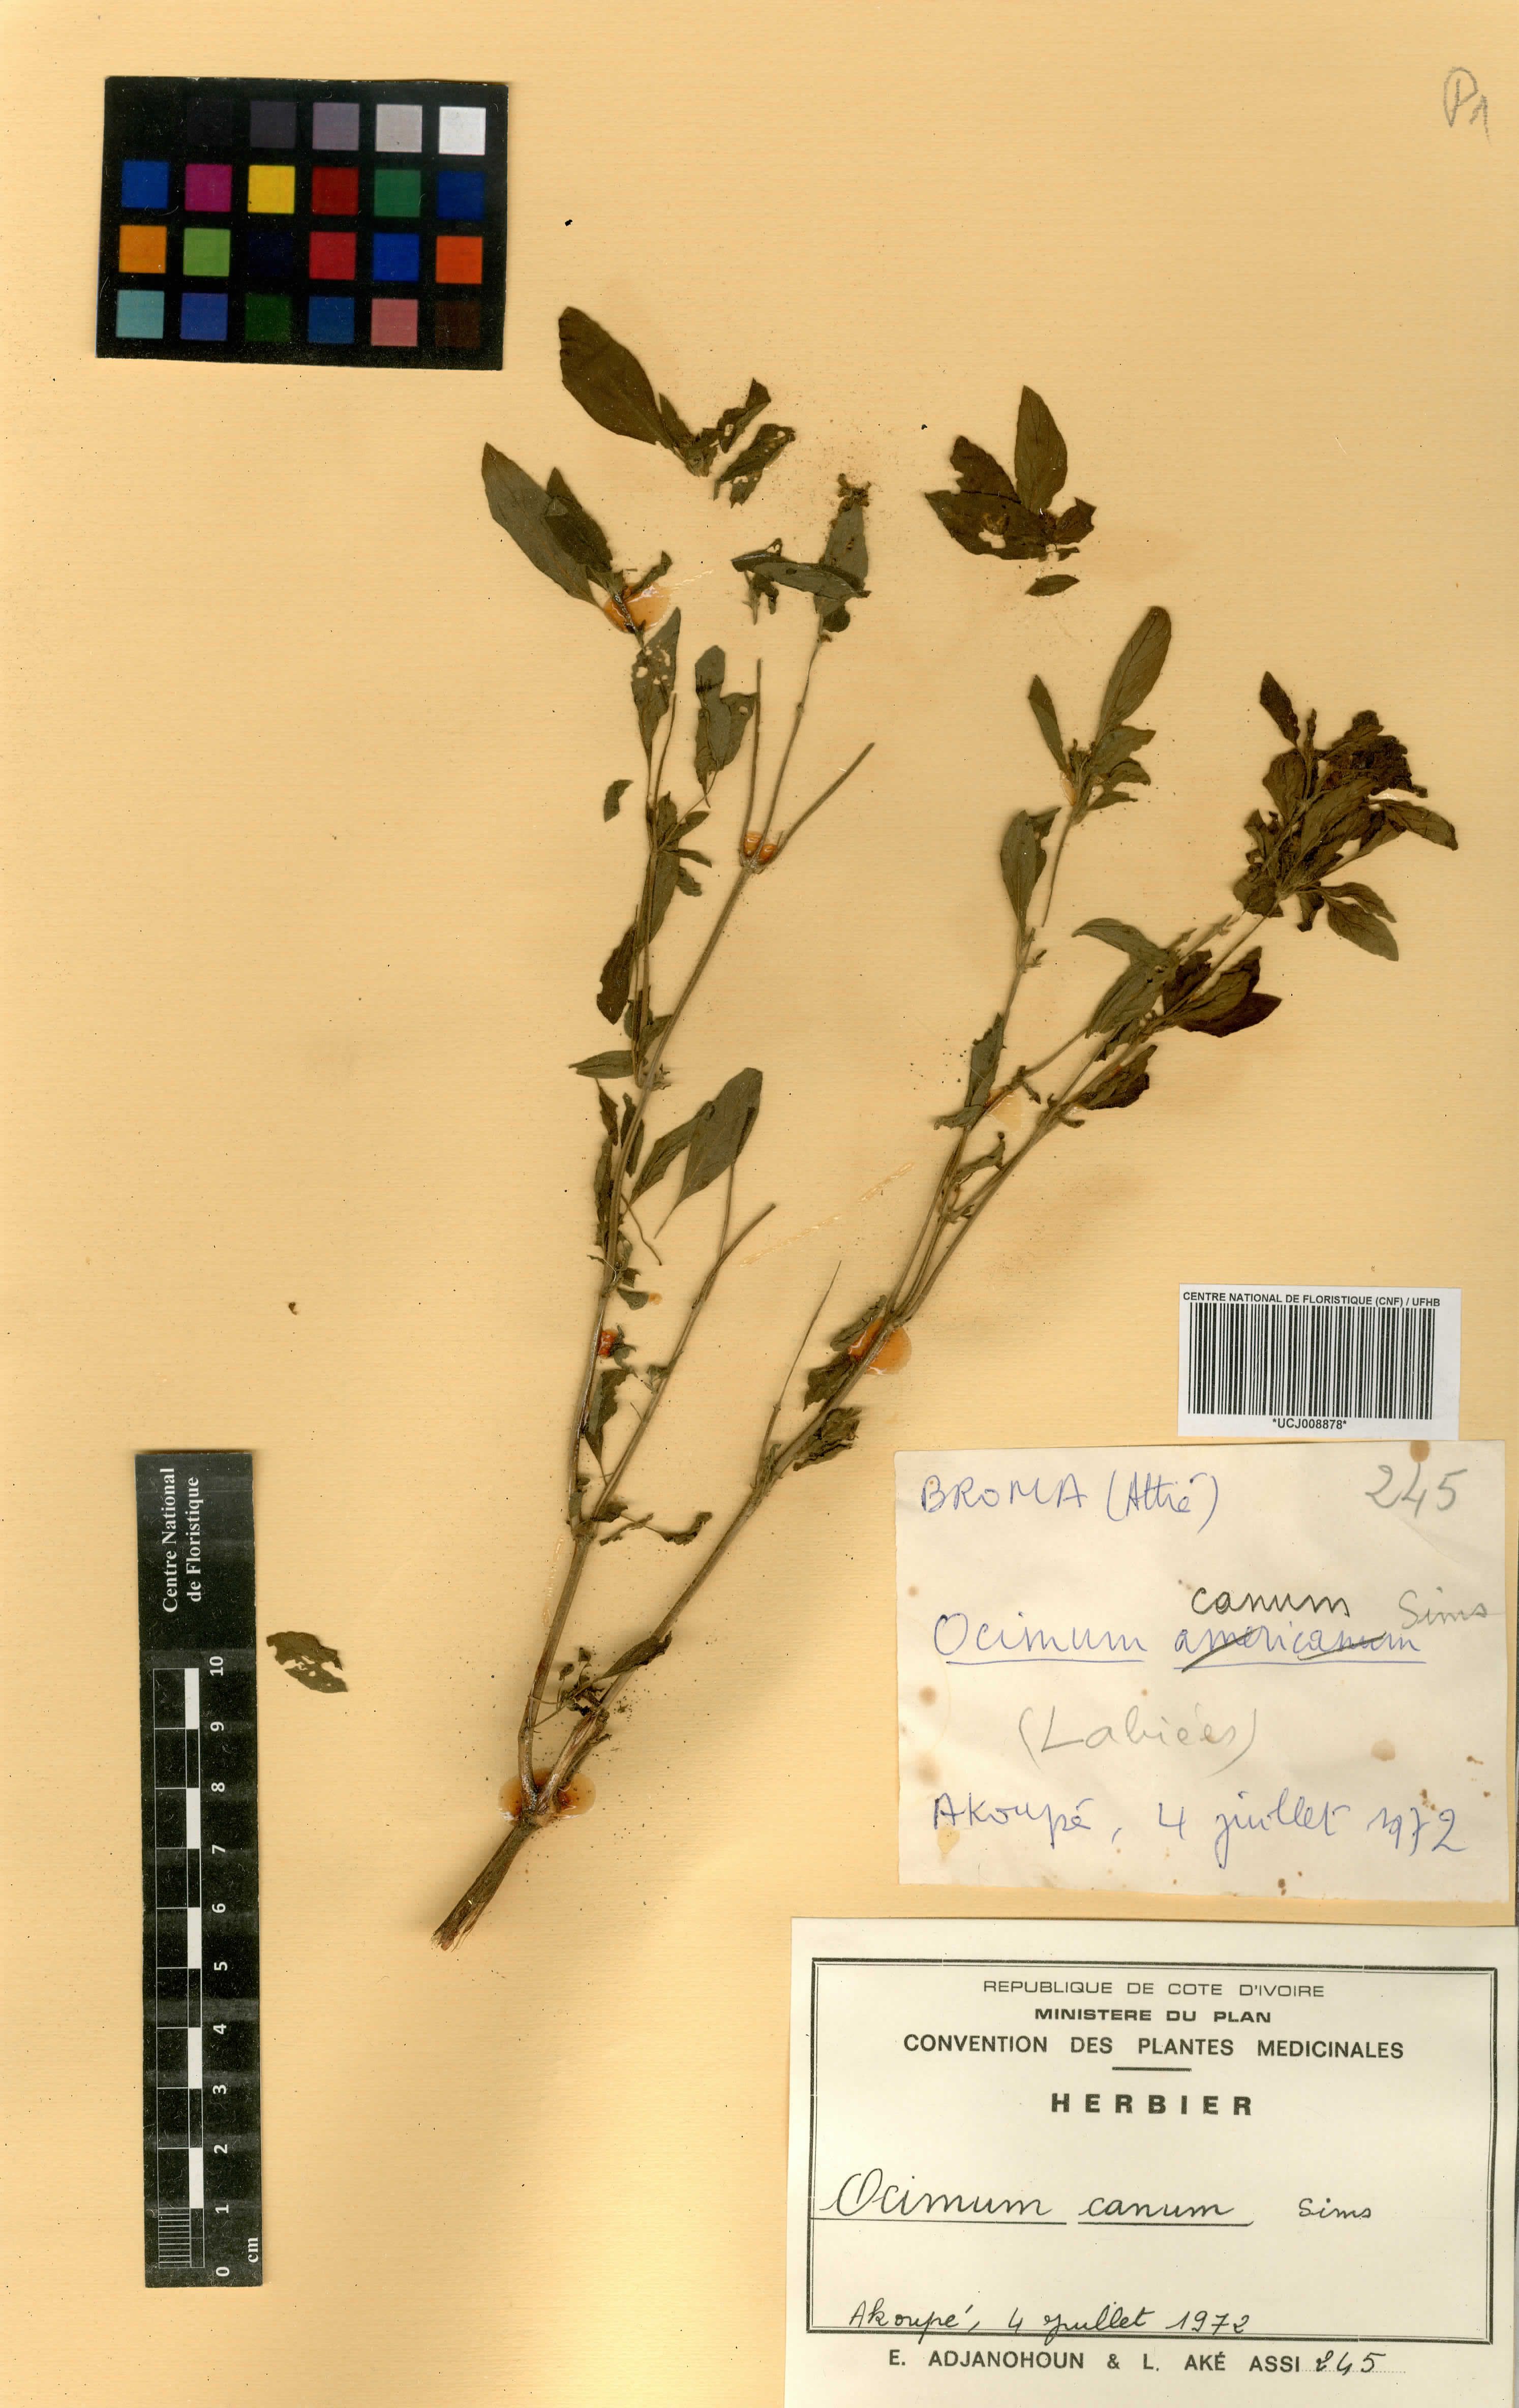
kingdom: Plantae
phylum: Tracheophyta
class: Magnoliopsida
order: Lamiales
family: Lamiaceae
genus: Ocimum
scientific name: Ocimum americanum
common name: American basil
